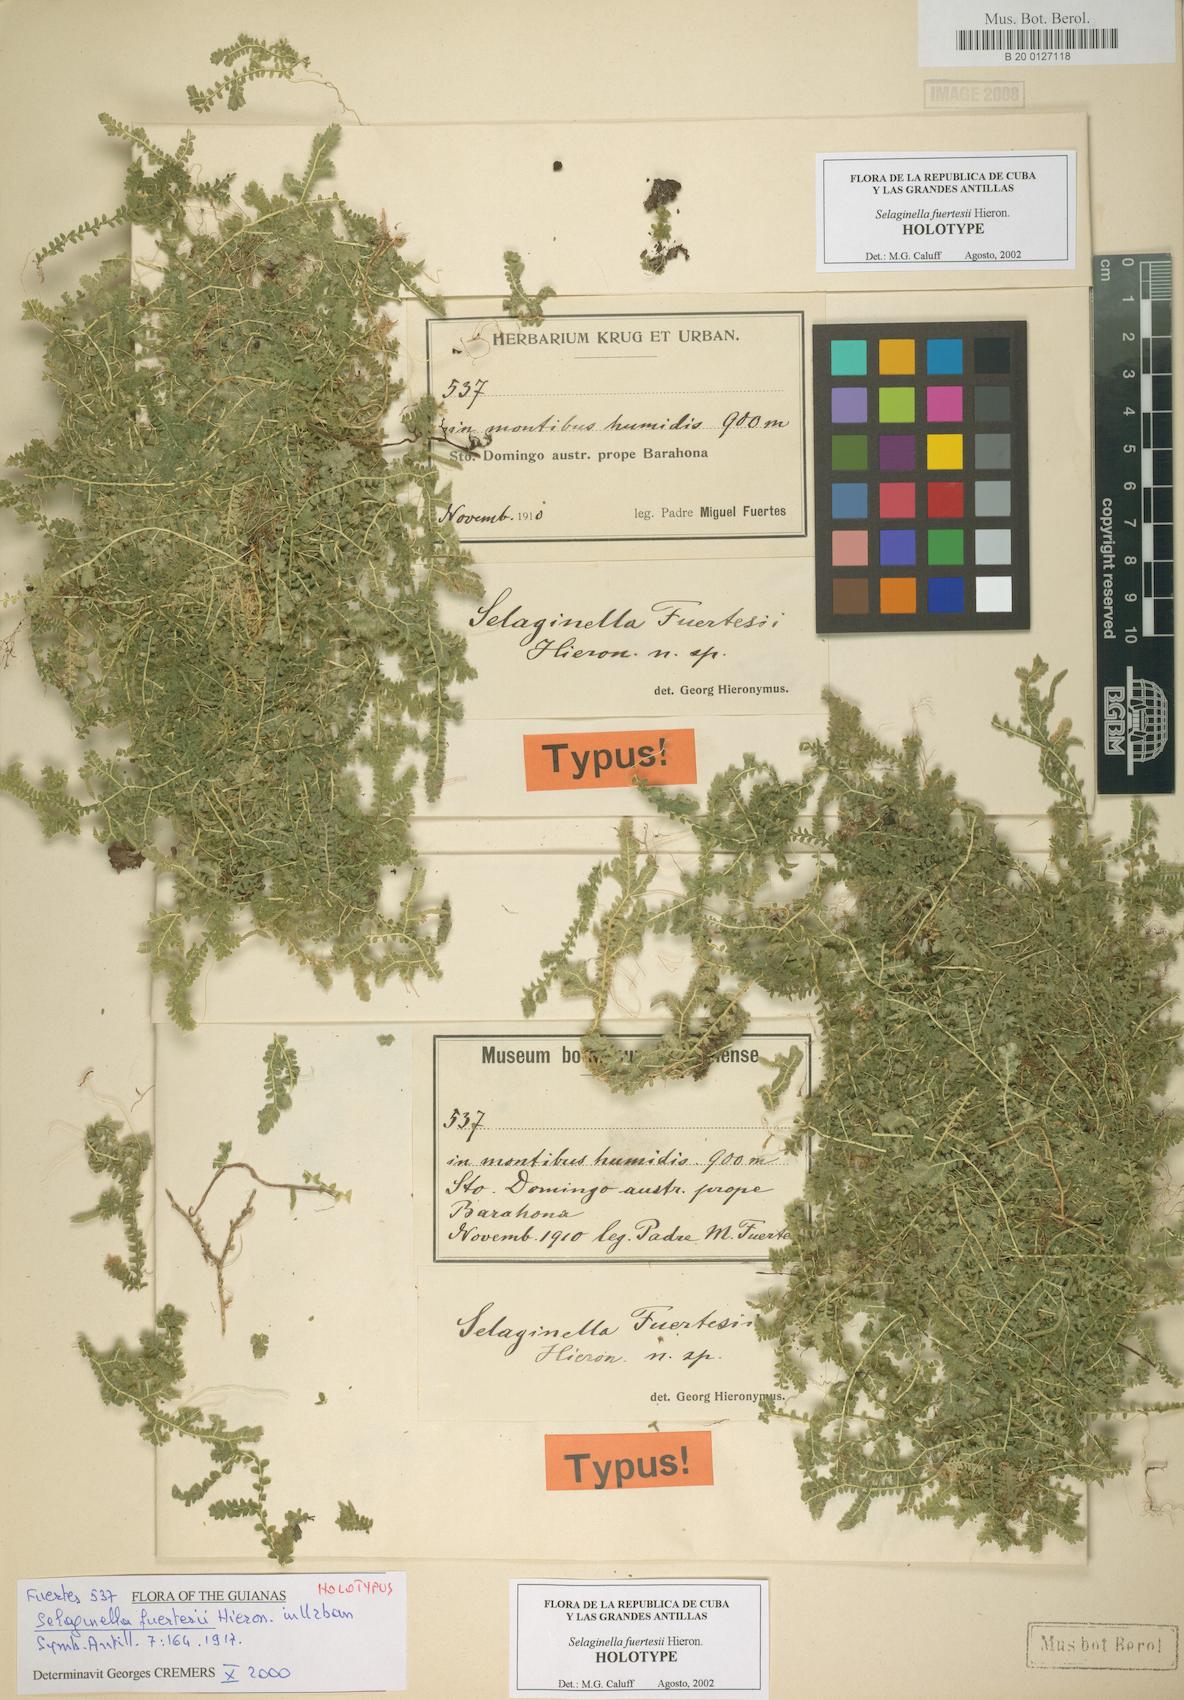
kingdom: Plantae
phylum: Tracheophyta
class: Lycopodiopsida
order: Selaginellales
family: Selaginellaceae
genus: Selaginella
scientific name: Selaginella fuertesii
